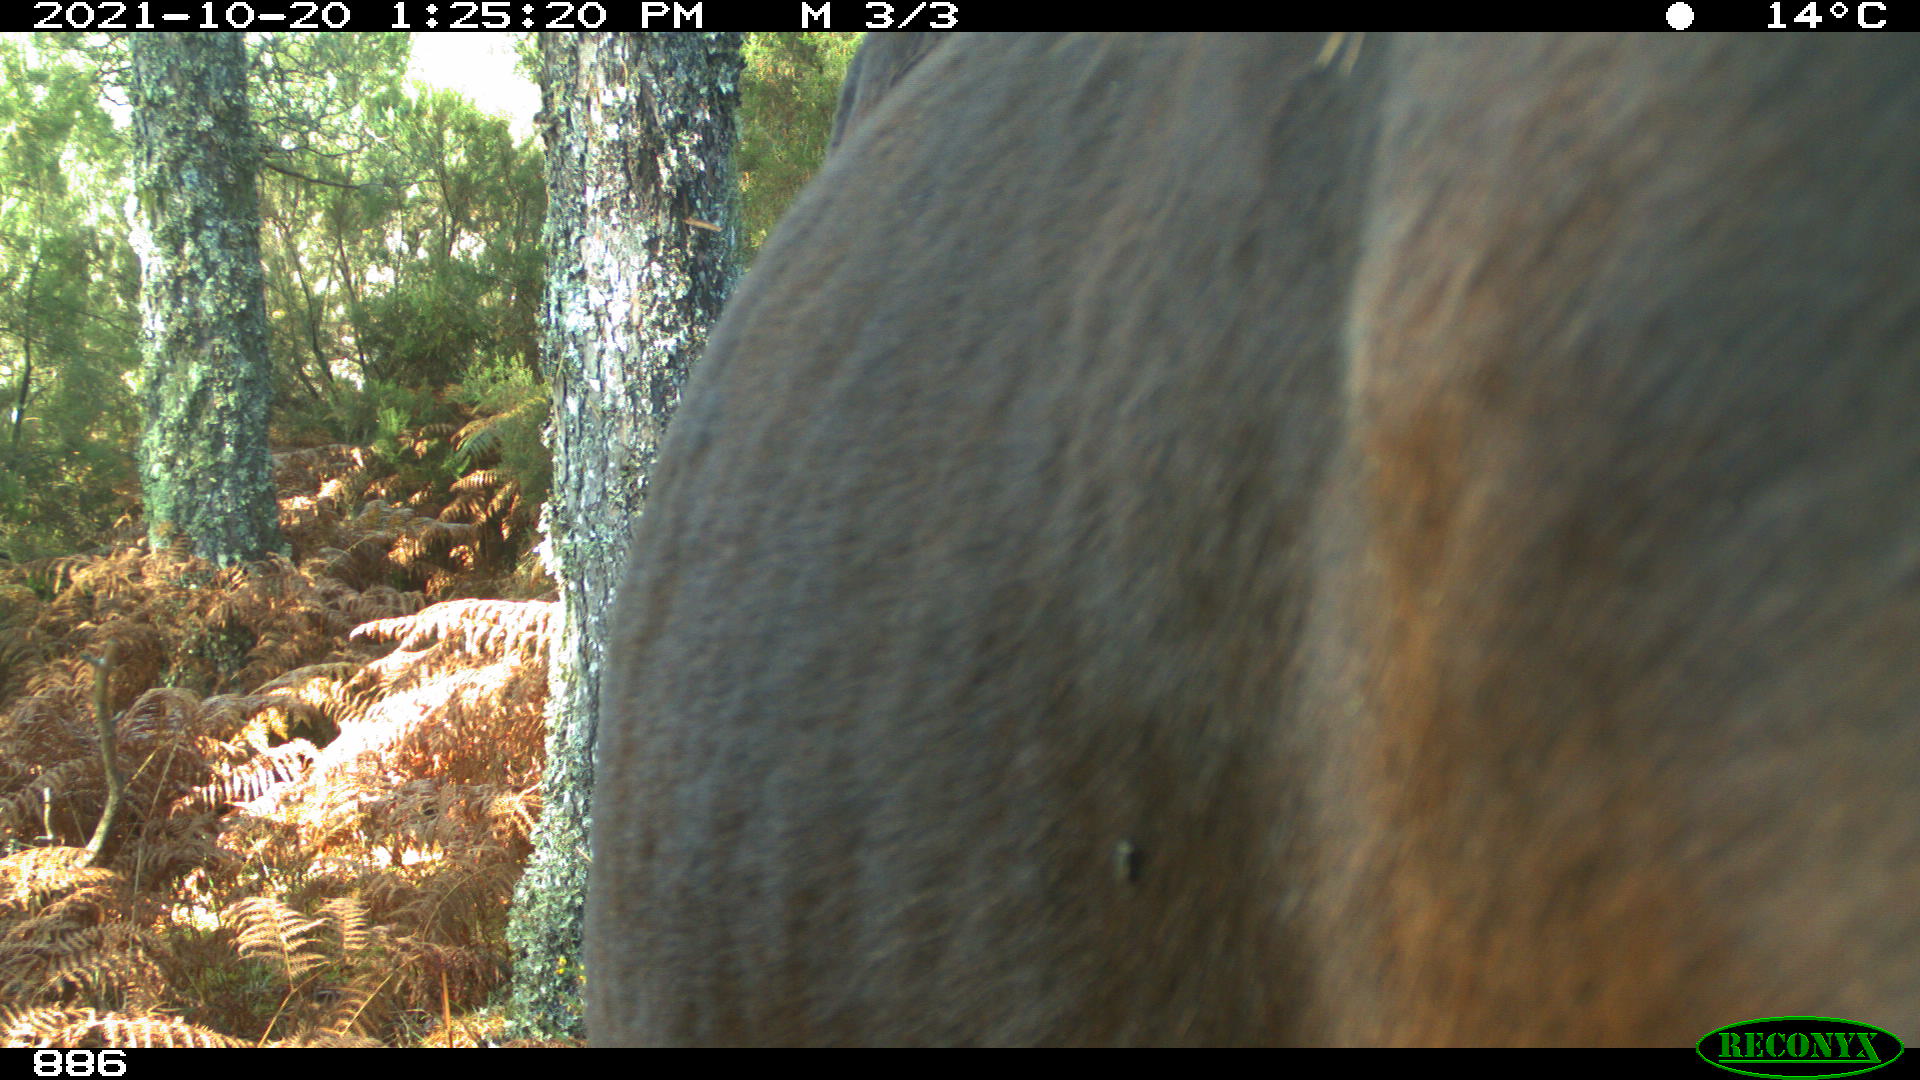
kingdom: Animalia
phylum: Chordata
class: Mammalia
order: Perissodactyla
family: Equidae
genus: Equus
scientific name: Equus caballus
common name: Horse
